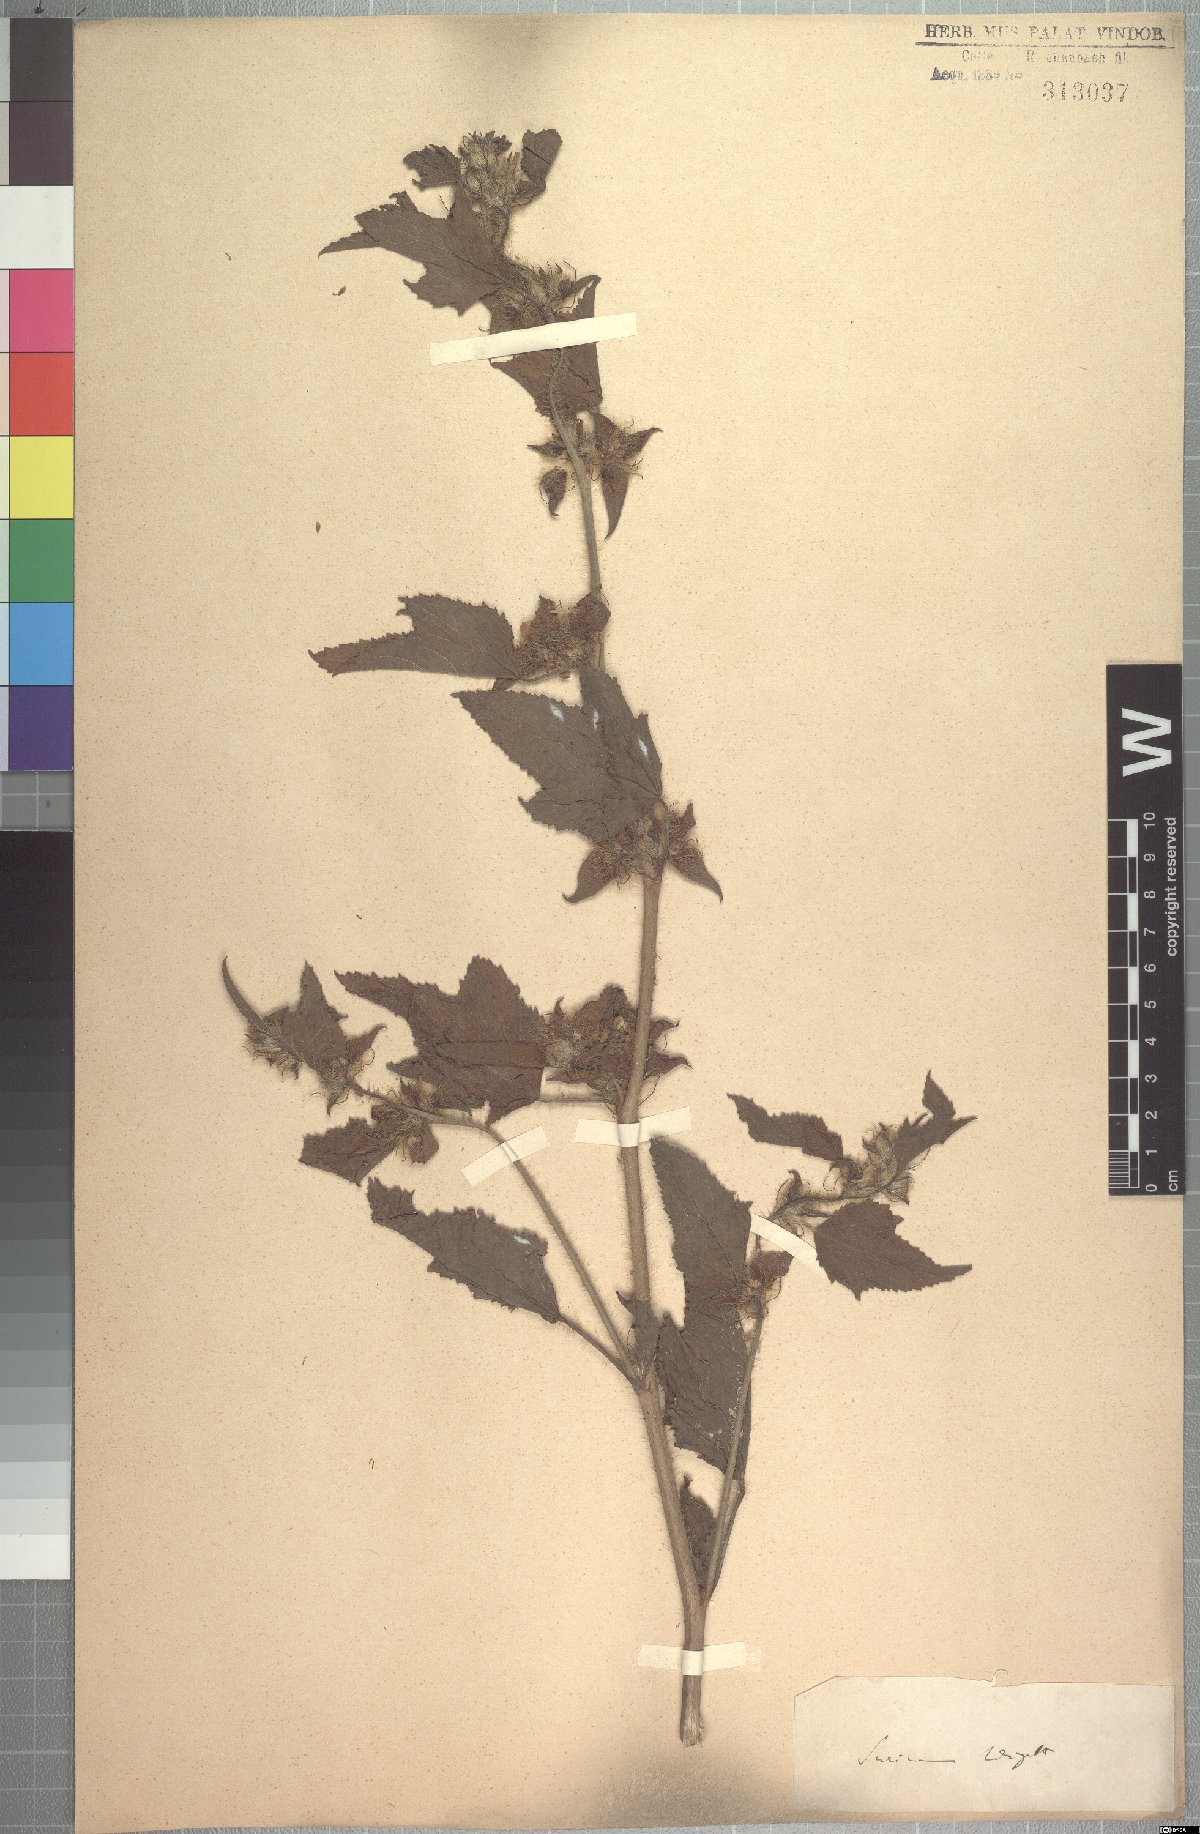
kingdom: Plantae
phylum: Tracheophyta
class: Magnoliopsida
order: Malvales
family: Malvaceae
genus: Malachra
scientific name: Malachra fasciata
